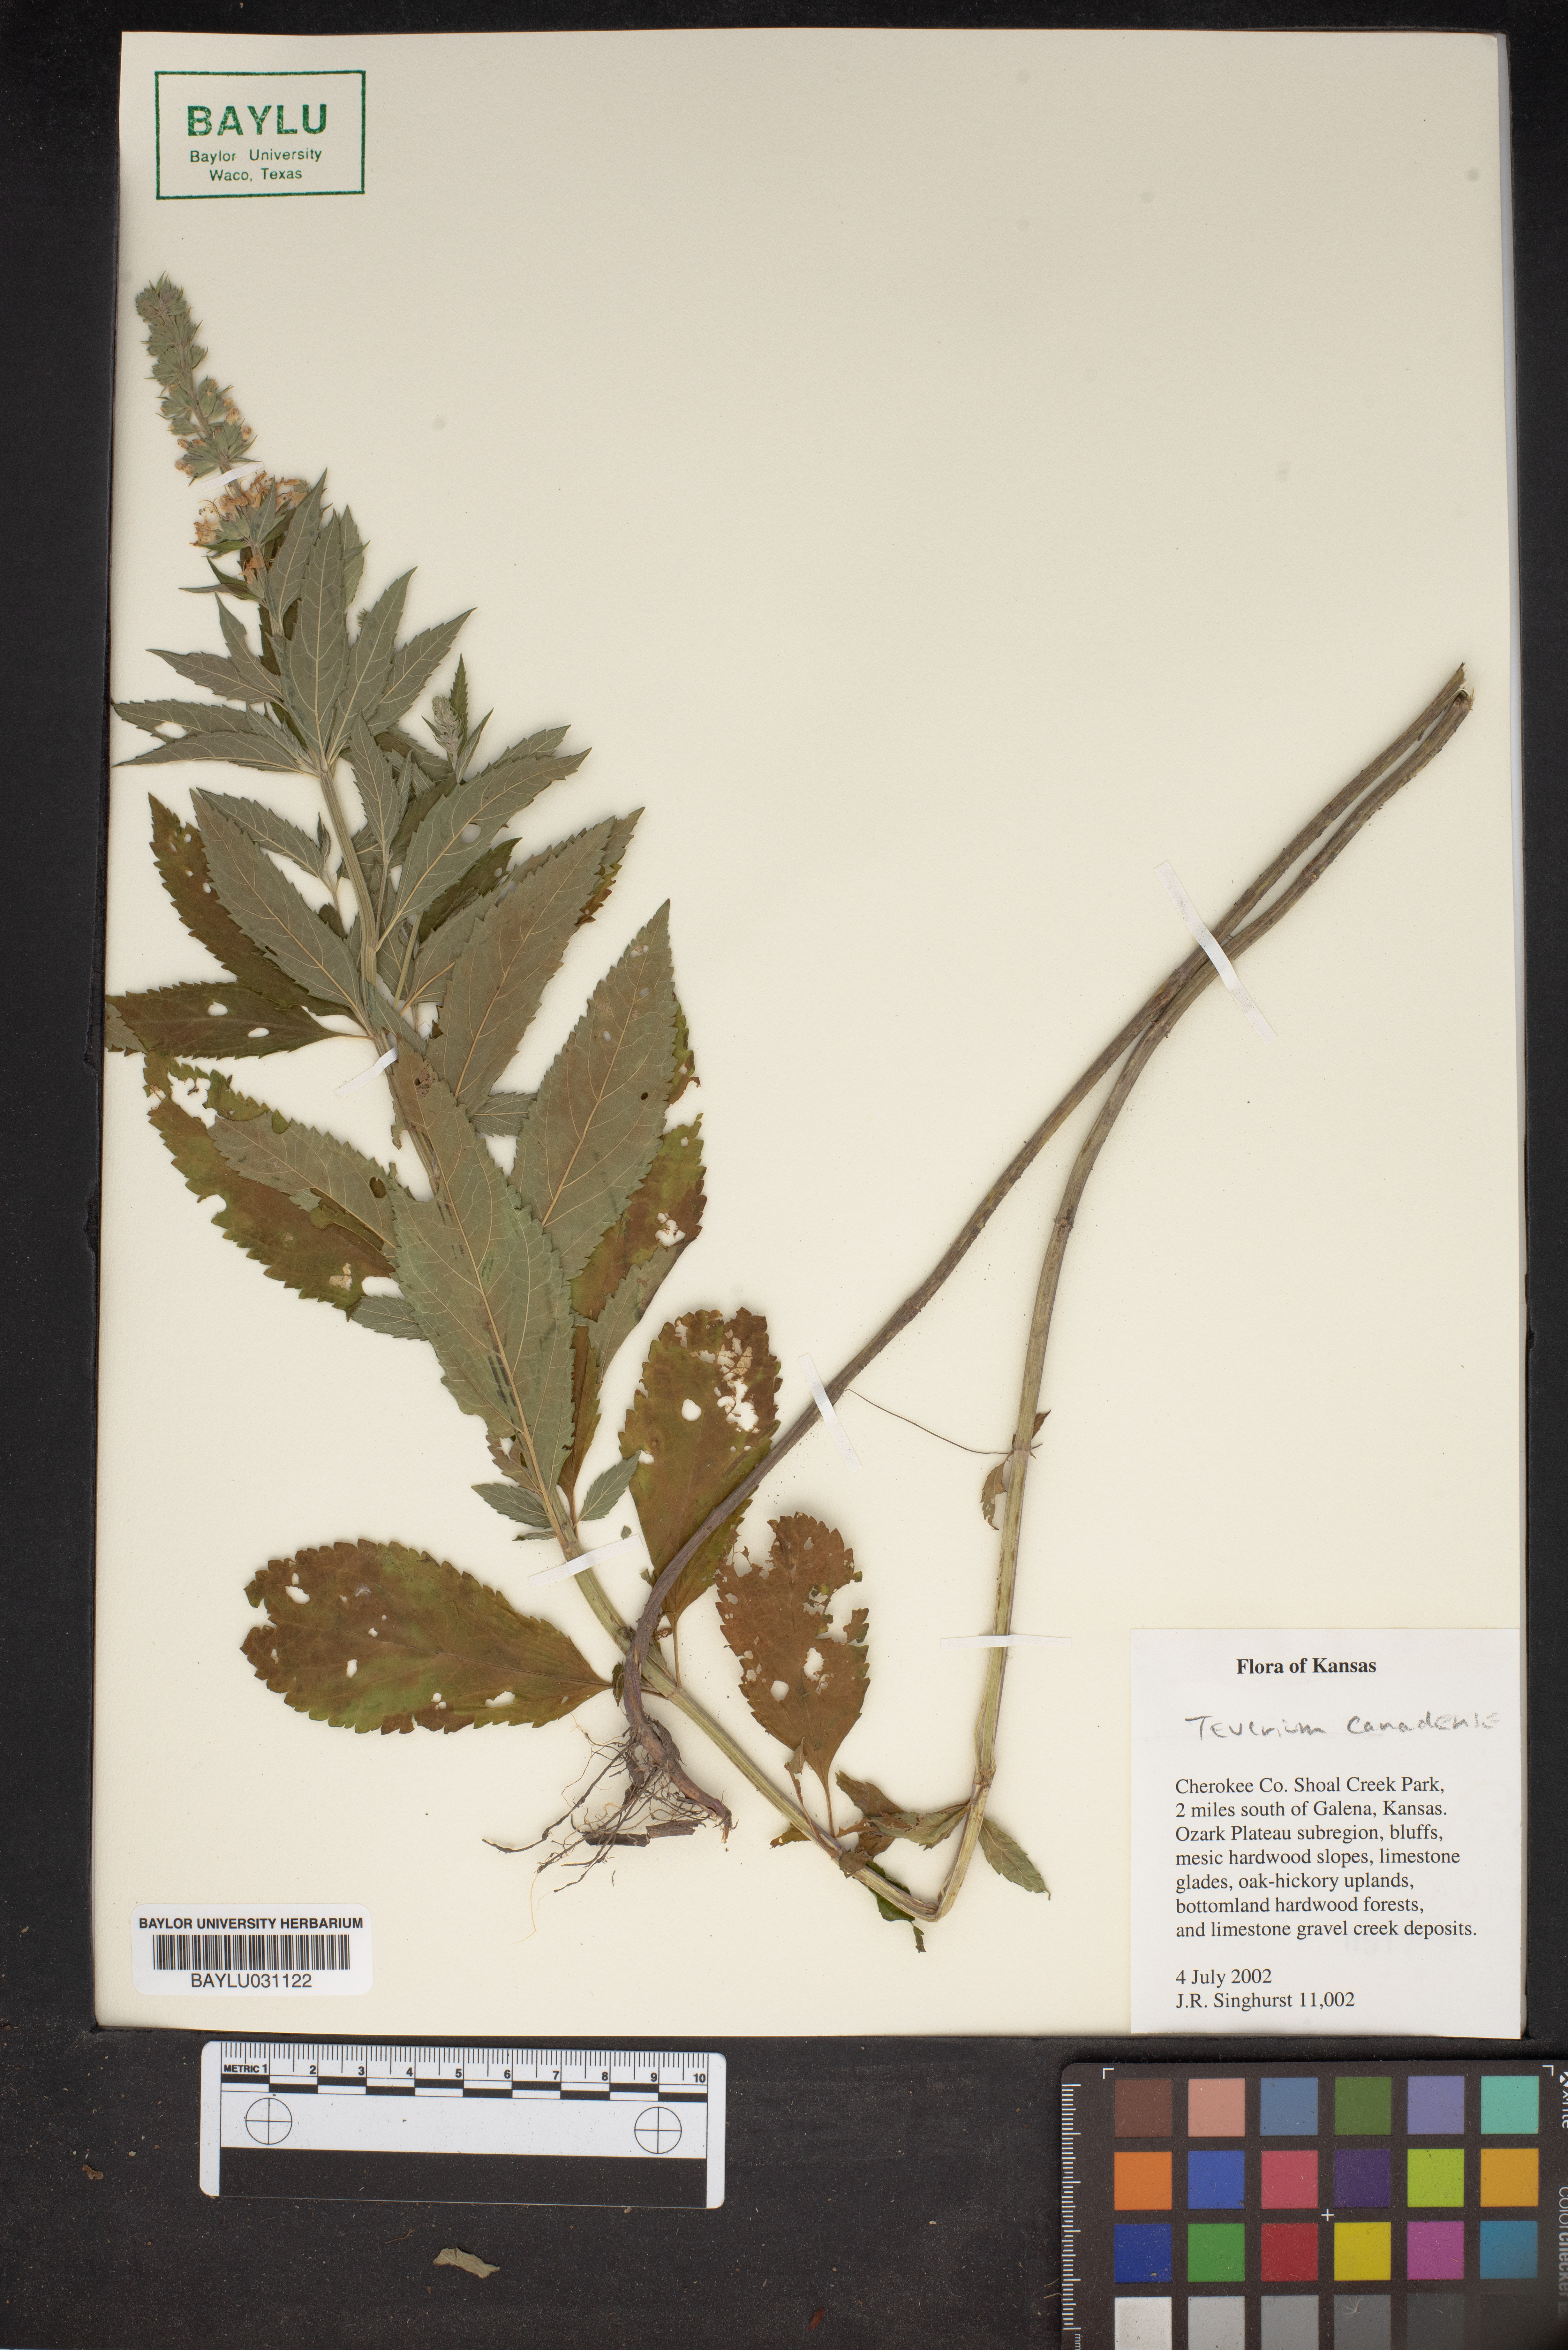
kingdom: Plantae
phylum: Tracheophyta
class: Magnoliopsida
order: Lamiales
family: Lamiaceae
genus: Teucrium
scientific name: Teucrium canadense
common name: American germander
